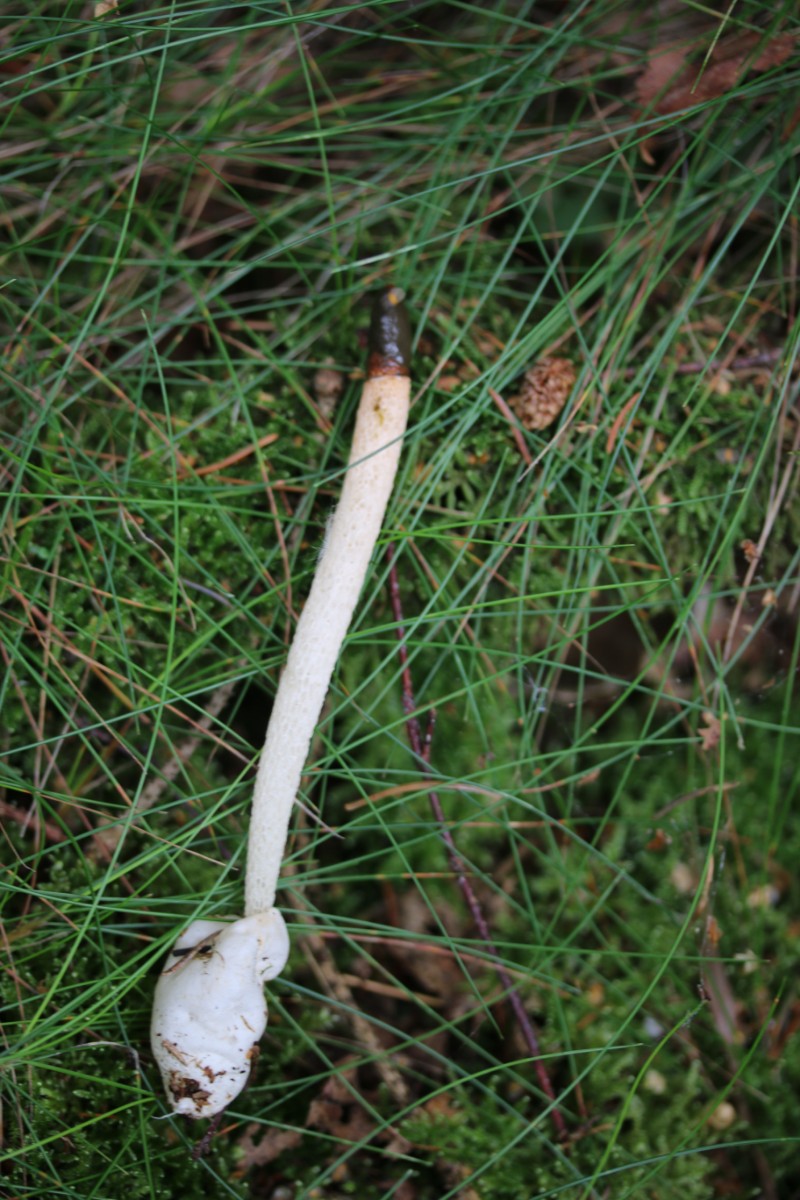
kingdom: Fungi
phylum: Basidiomycota
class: Agaricomycetes
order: Phallales
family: Phallaceae
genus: Mutinus
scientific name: Mutinus caninus
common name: hunde-stinksvamp
